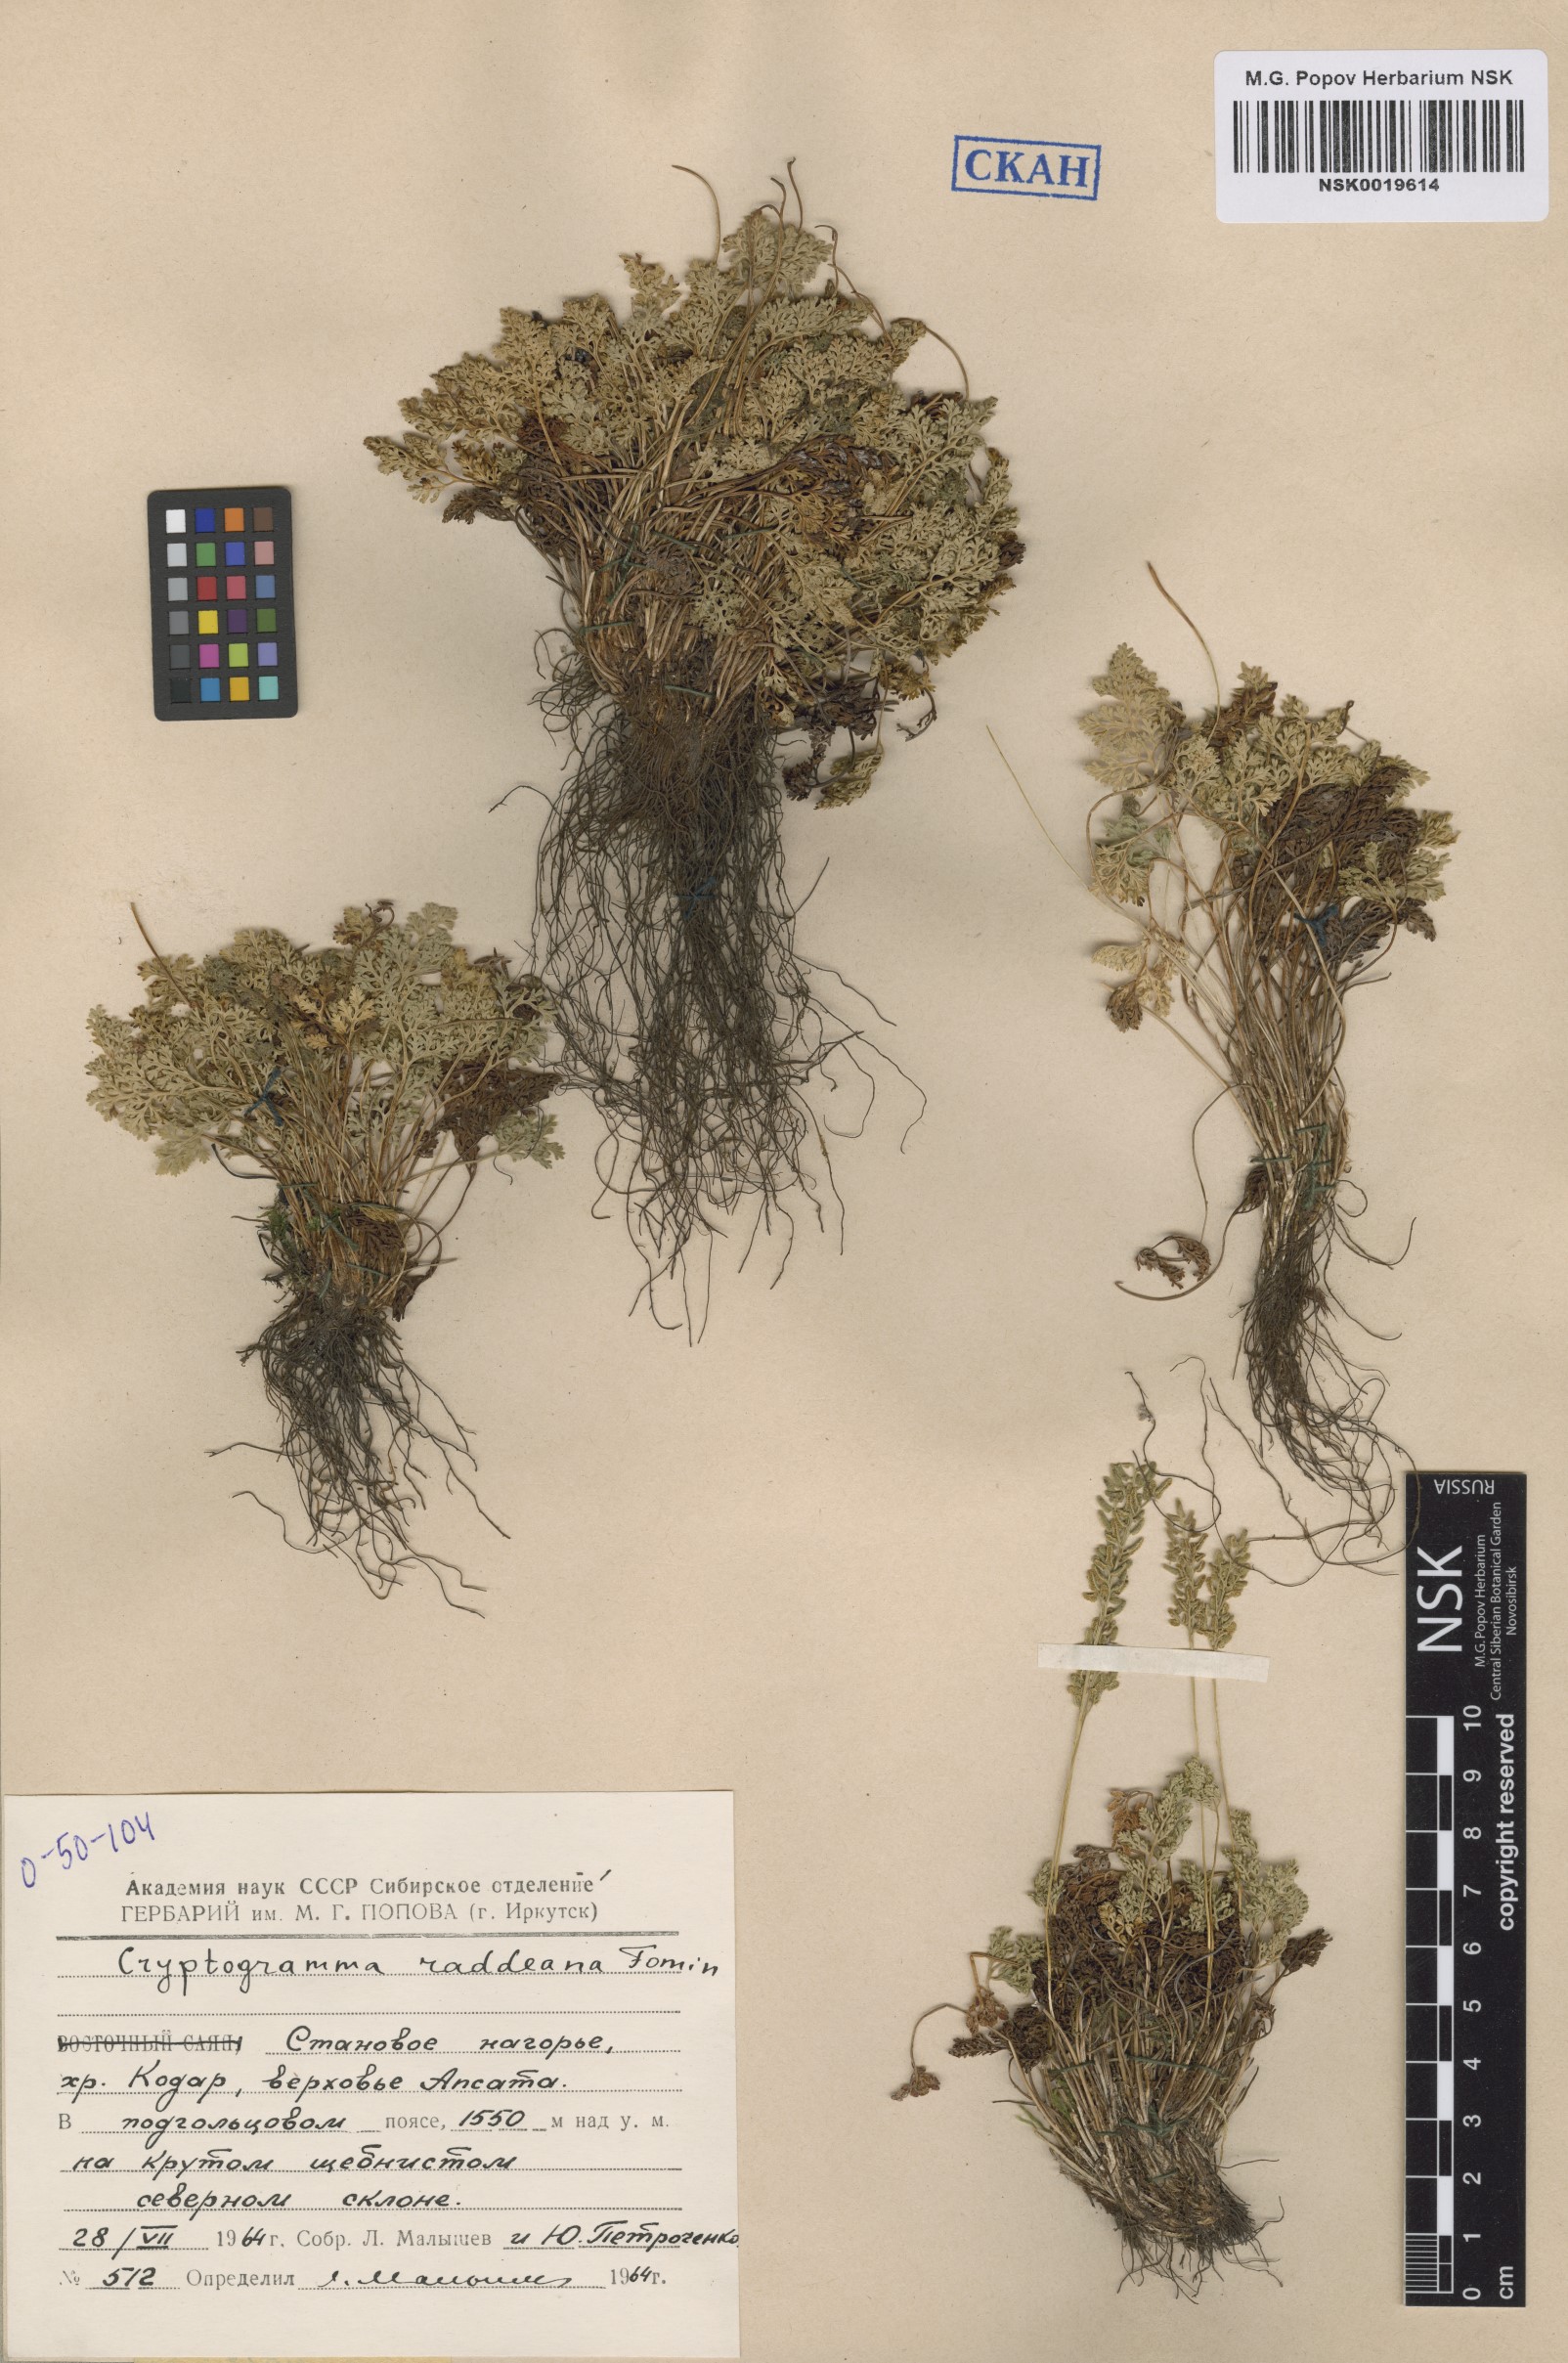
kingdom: Plantae
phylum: Tracheophyta
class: Polypodiopsida
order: Polypodiales
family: Pteridaceae
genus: Cryptogramma
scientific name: Cryptogramma brunoniana
